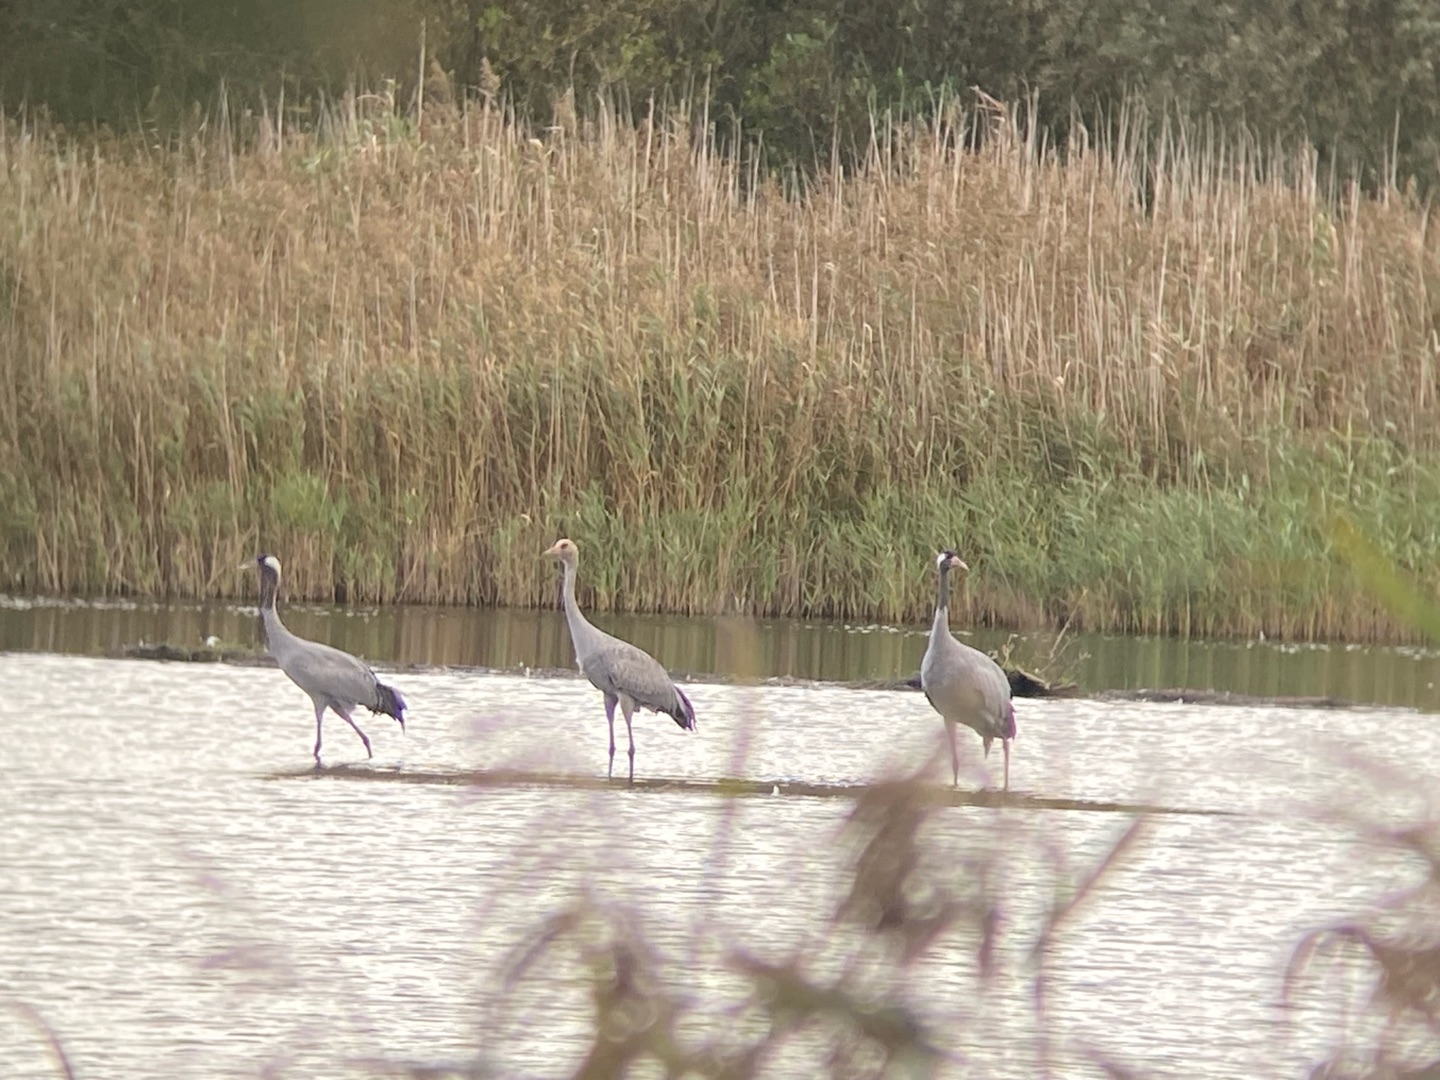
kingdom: Animalia
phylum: Chordata
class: Aves
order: Gruiformes
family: Gruidae
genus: Grus
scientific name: Grus grus
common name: Trane
